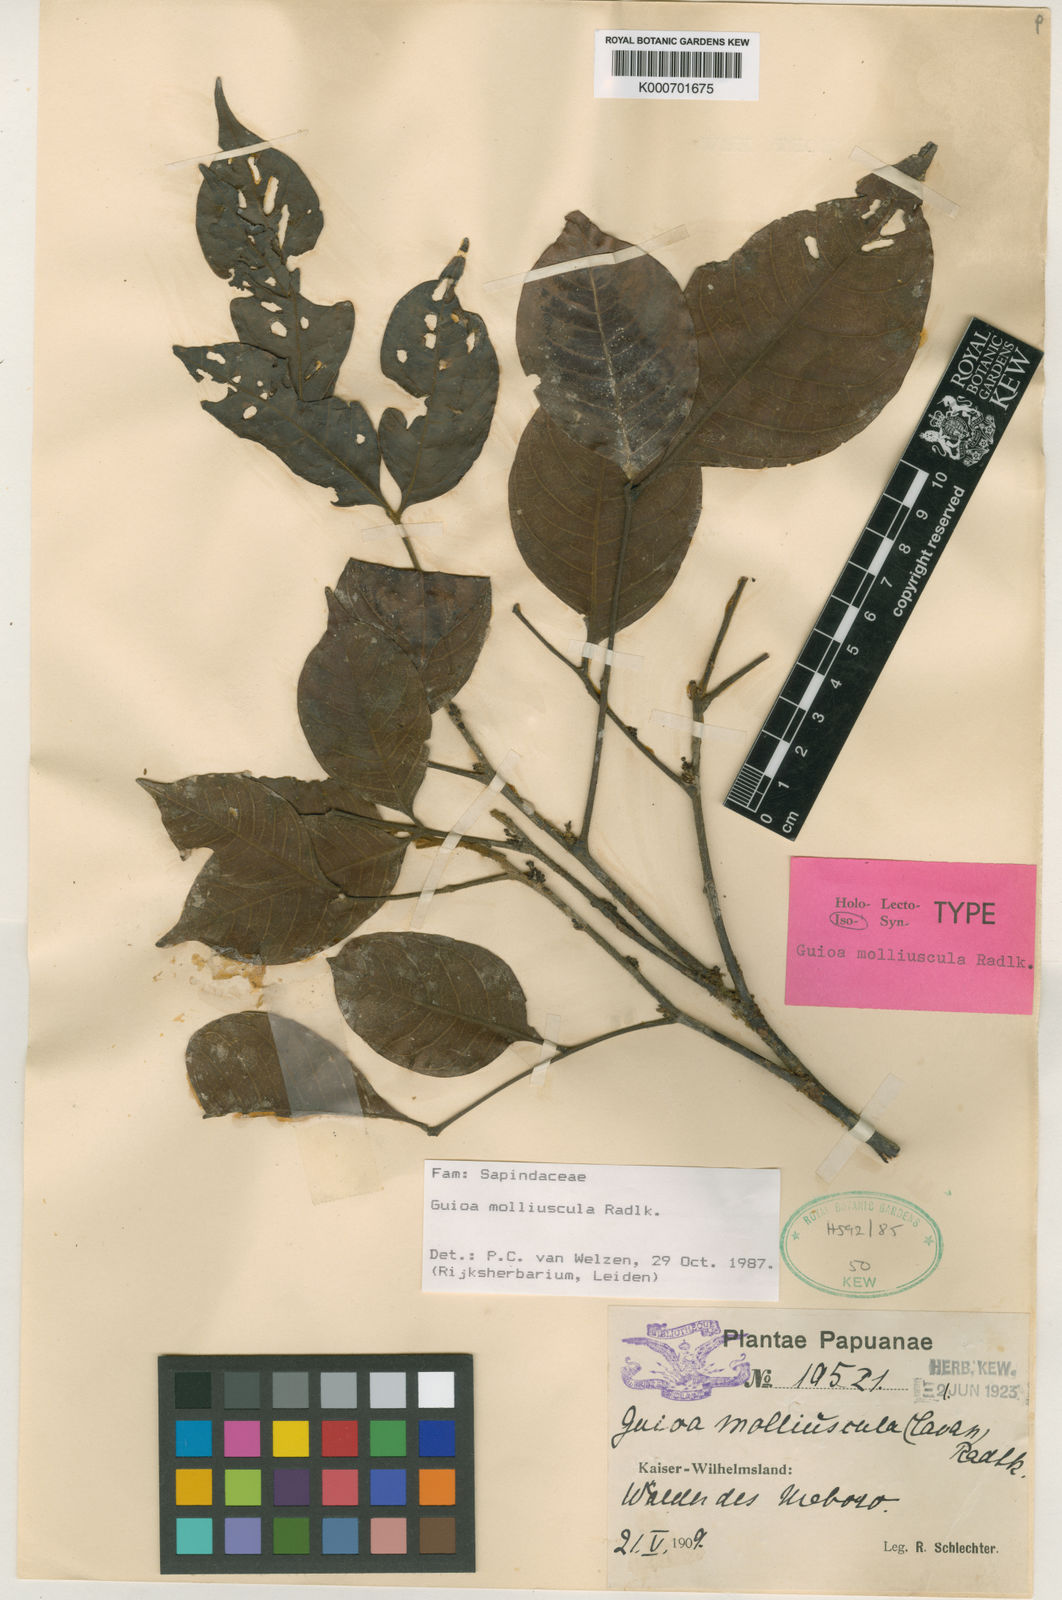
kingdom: Plantae
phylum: Tracheophyta
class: Magnoliopsida
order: Sapindales
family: Sapindaceae
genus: Guioa
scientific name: Guioa molliuscula
